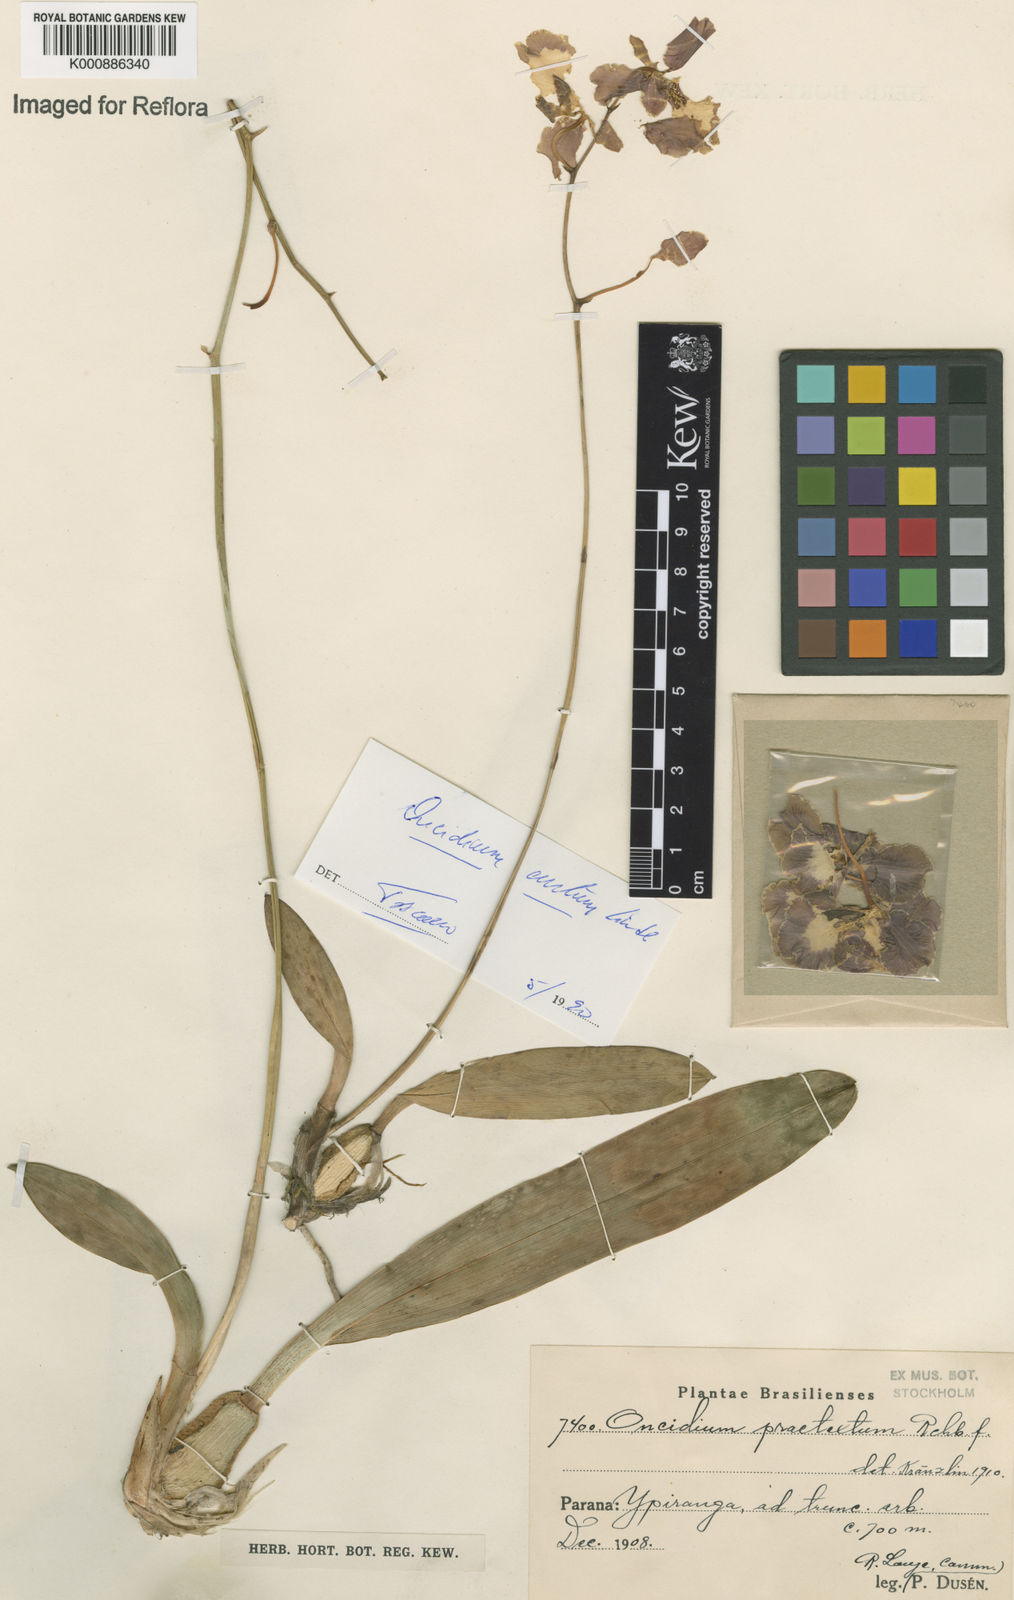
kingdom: Plantae
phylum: Tracheophyta
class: Liliopsida
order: Asparagales
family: Orchidaceae
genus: Gomesa
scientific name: Gomesa gardneri
